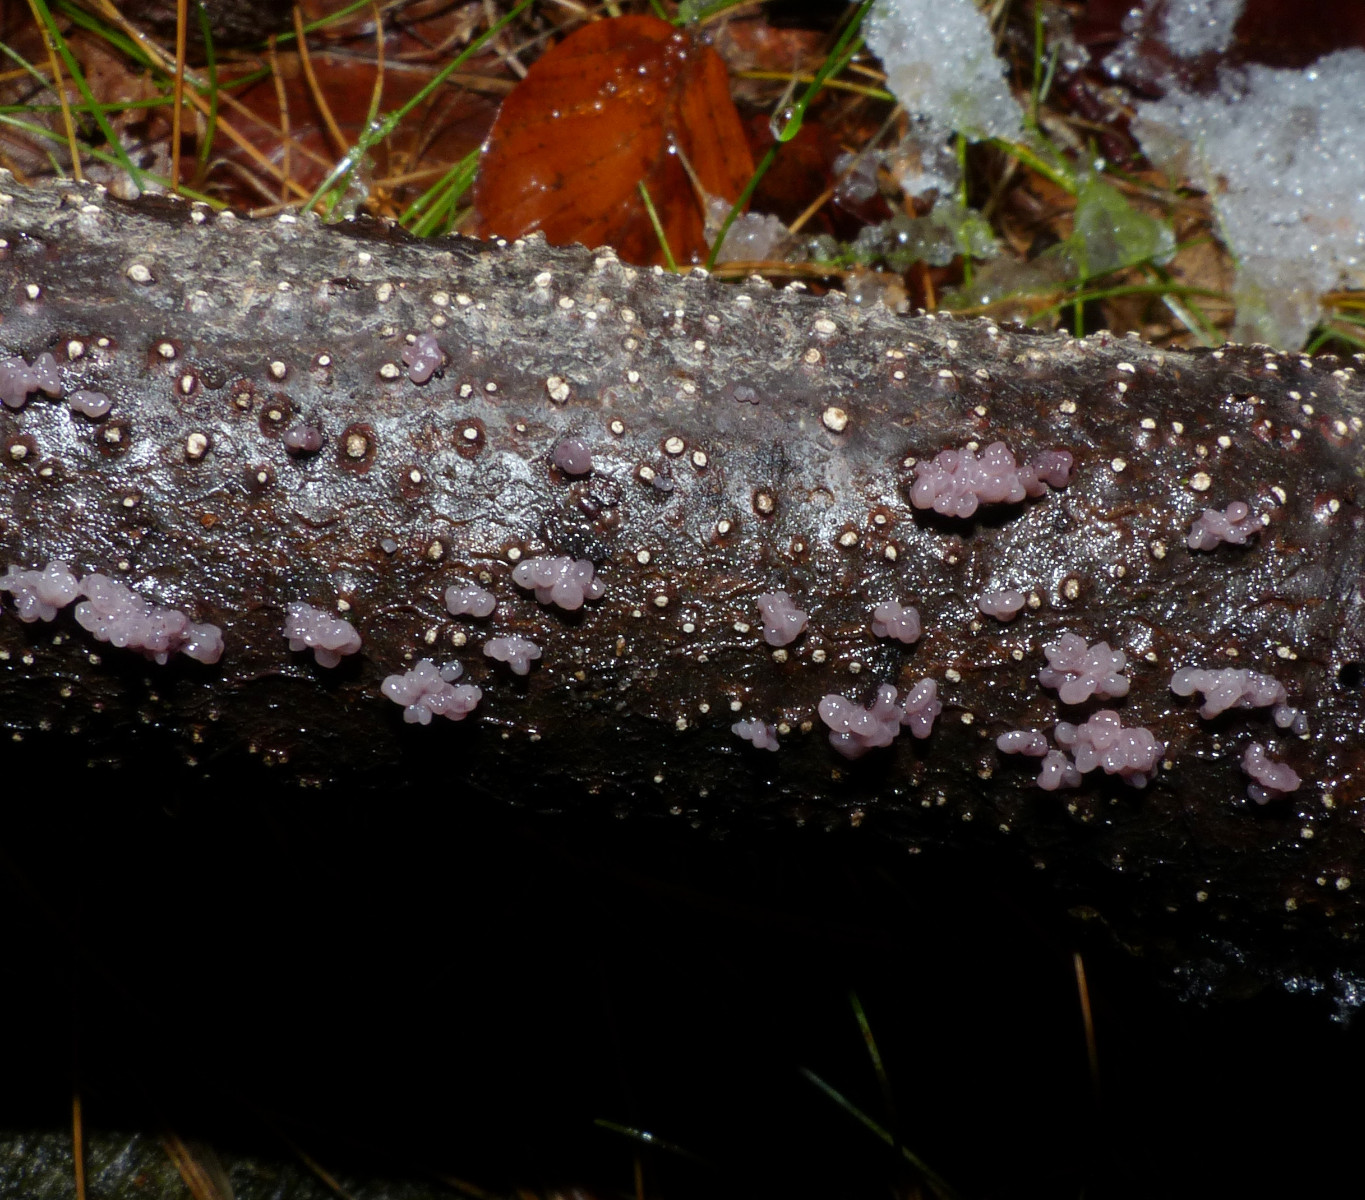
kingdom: Fungi
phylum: Ascomycota
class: Leotiomycetes
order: Helotiales
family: Gelatinodiscaceae
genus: Ascocoryne
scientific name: Ascocoryne sarcoides
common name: rødlilla sejskive
